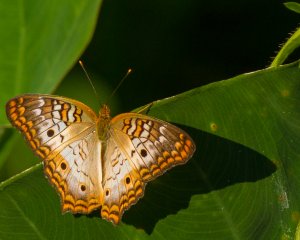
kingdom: Animalia
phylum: Arthropoda
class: Insecta
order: Lepidoptera
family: Nymphalidae
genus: Anartia
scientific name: Anartia jatrophae
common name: White Peacock
